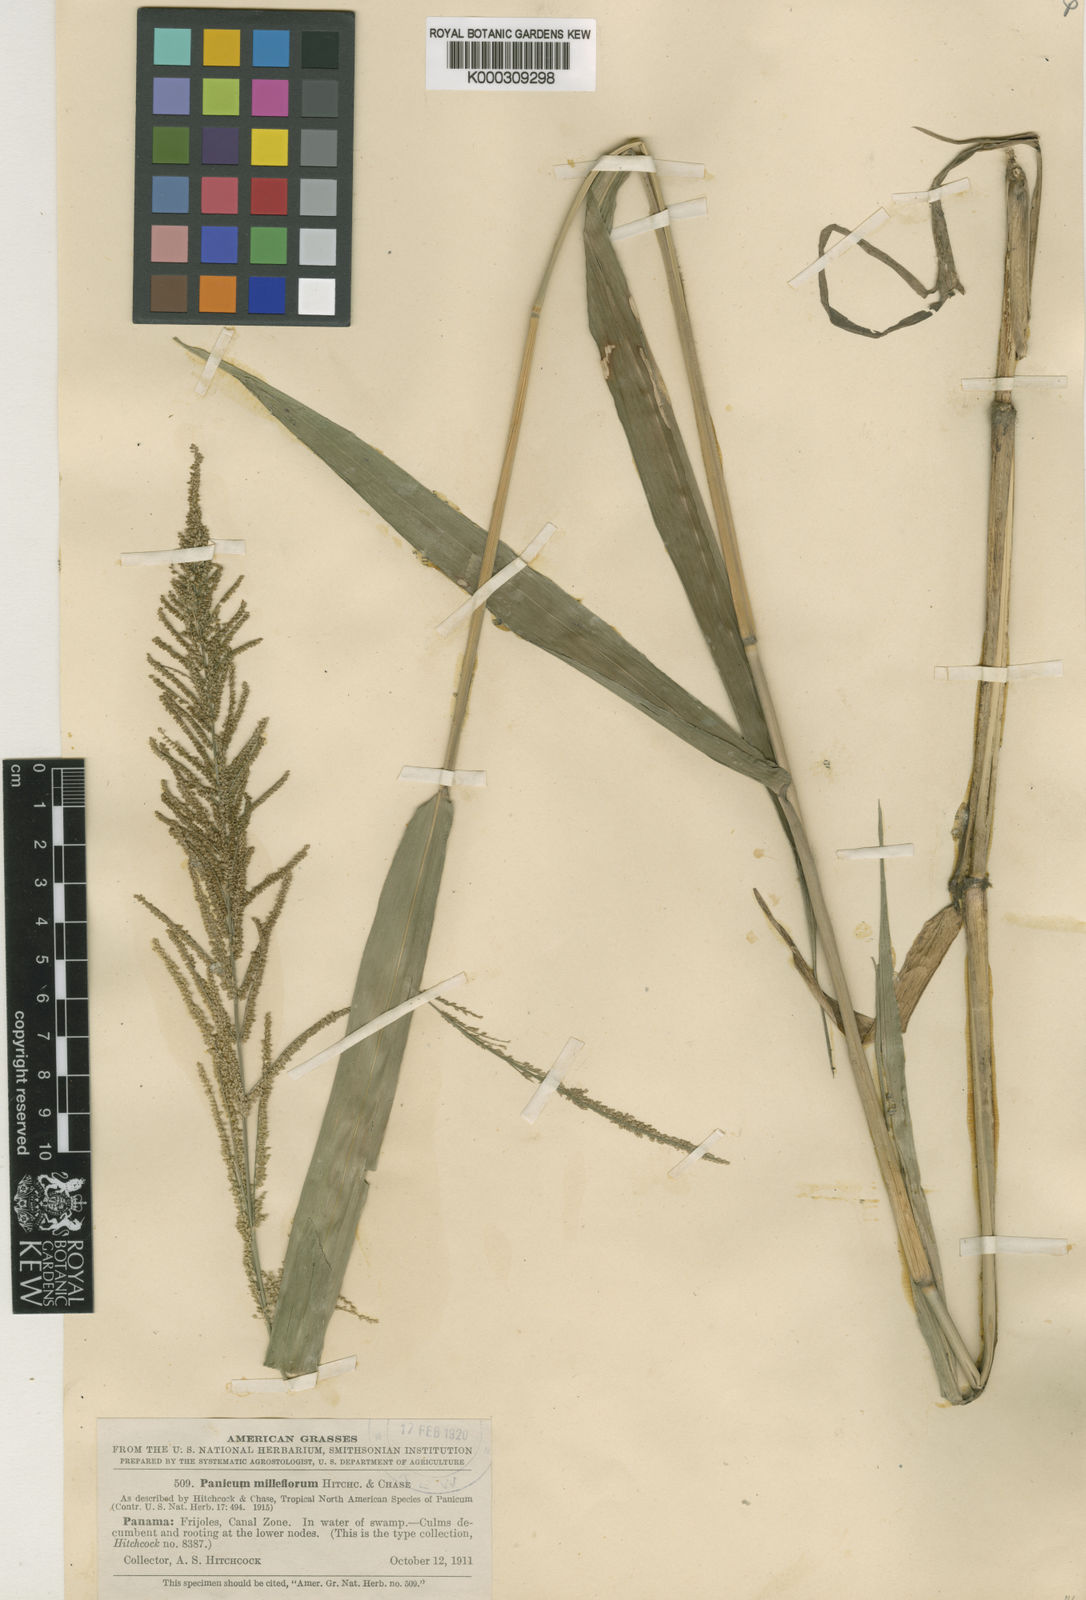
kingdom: Plantae
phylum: Tracheophyta
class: Liliopsida
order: Poales
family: Poaceae
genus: Rugoloa
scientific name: Rugoloa pilosa
